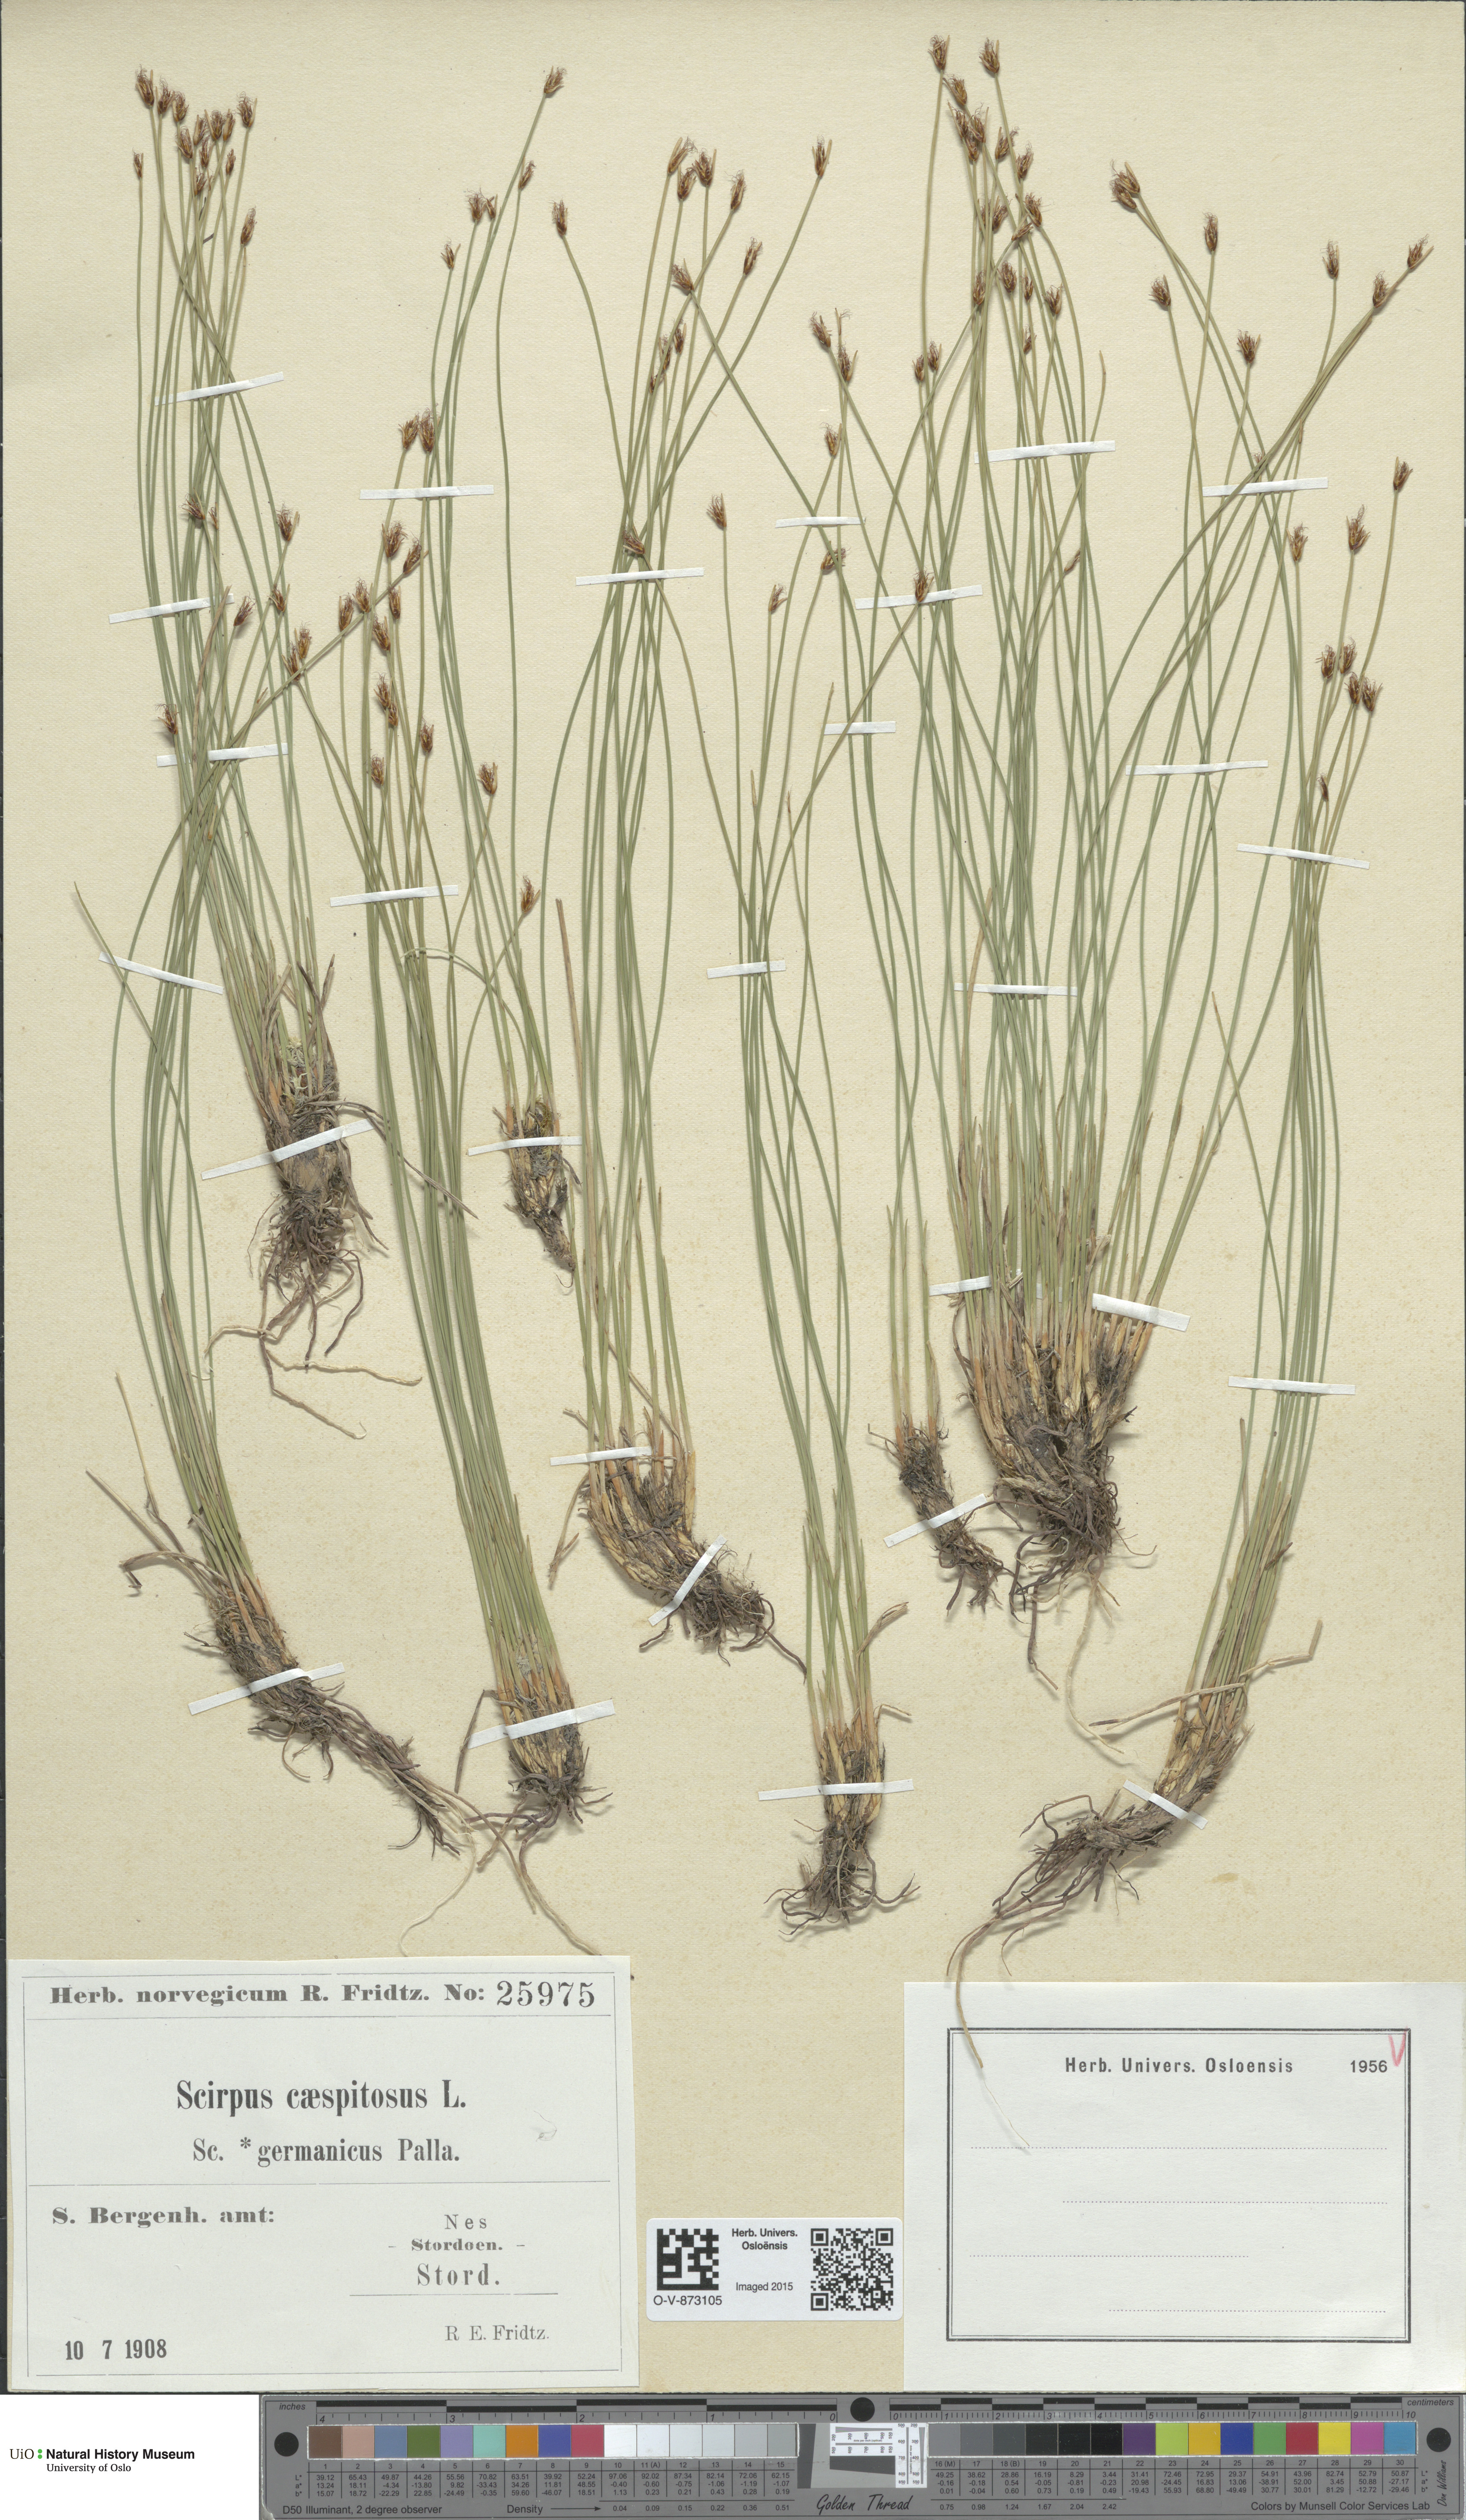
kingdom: Plantae
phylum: Tracheophyta
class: Liliopsida
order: Poales
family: Cyperaceae
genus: Trichophorum
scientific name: Trichophorum cespitosum
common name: Cespitose bulrush
